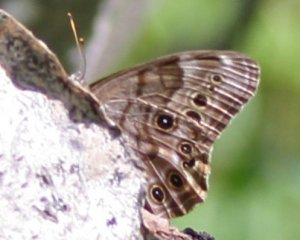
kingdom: Animalia
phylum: Arthropoda
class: Insecta
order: Lepidoptera
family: Nymphalidae
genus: Lethe
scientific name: Lethe anthedon
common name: Northern Pearly-Eye
